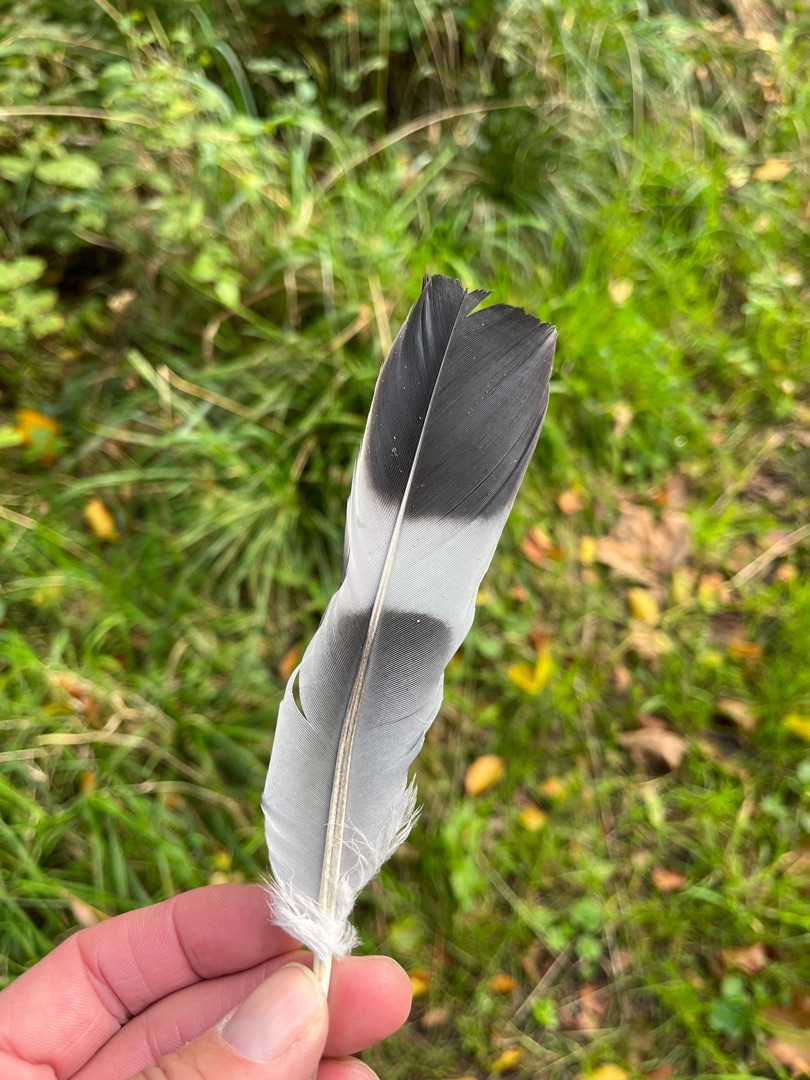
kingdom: Animalia
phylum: Chordata
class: Aves
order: Columbiformes
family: Columbidae
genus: Columba
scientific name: Columba palumbus
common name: Ringdue
